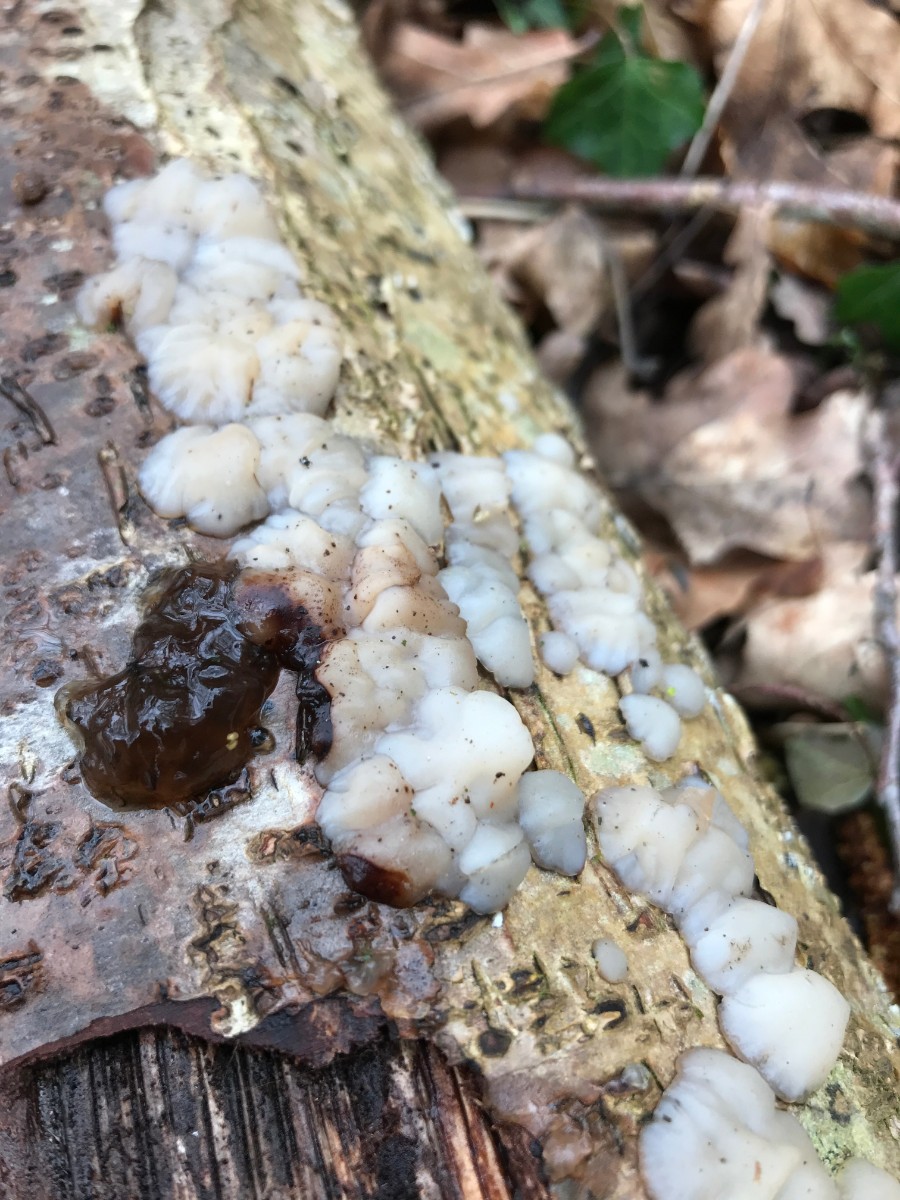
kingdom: Fungi
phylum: Basidiomycota
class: Agaricomycetes
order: Auriculariales
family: Auriculariaceae
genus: Exidia
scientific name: Exidia thuretiana
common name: hvidlig bævretop
